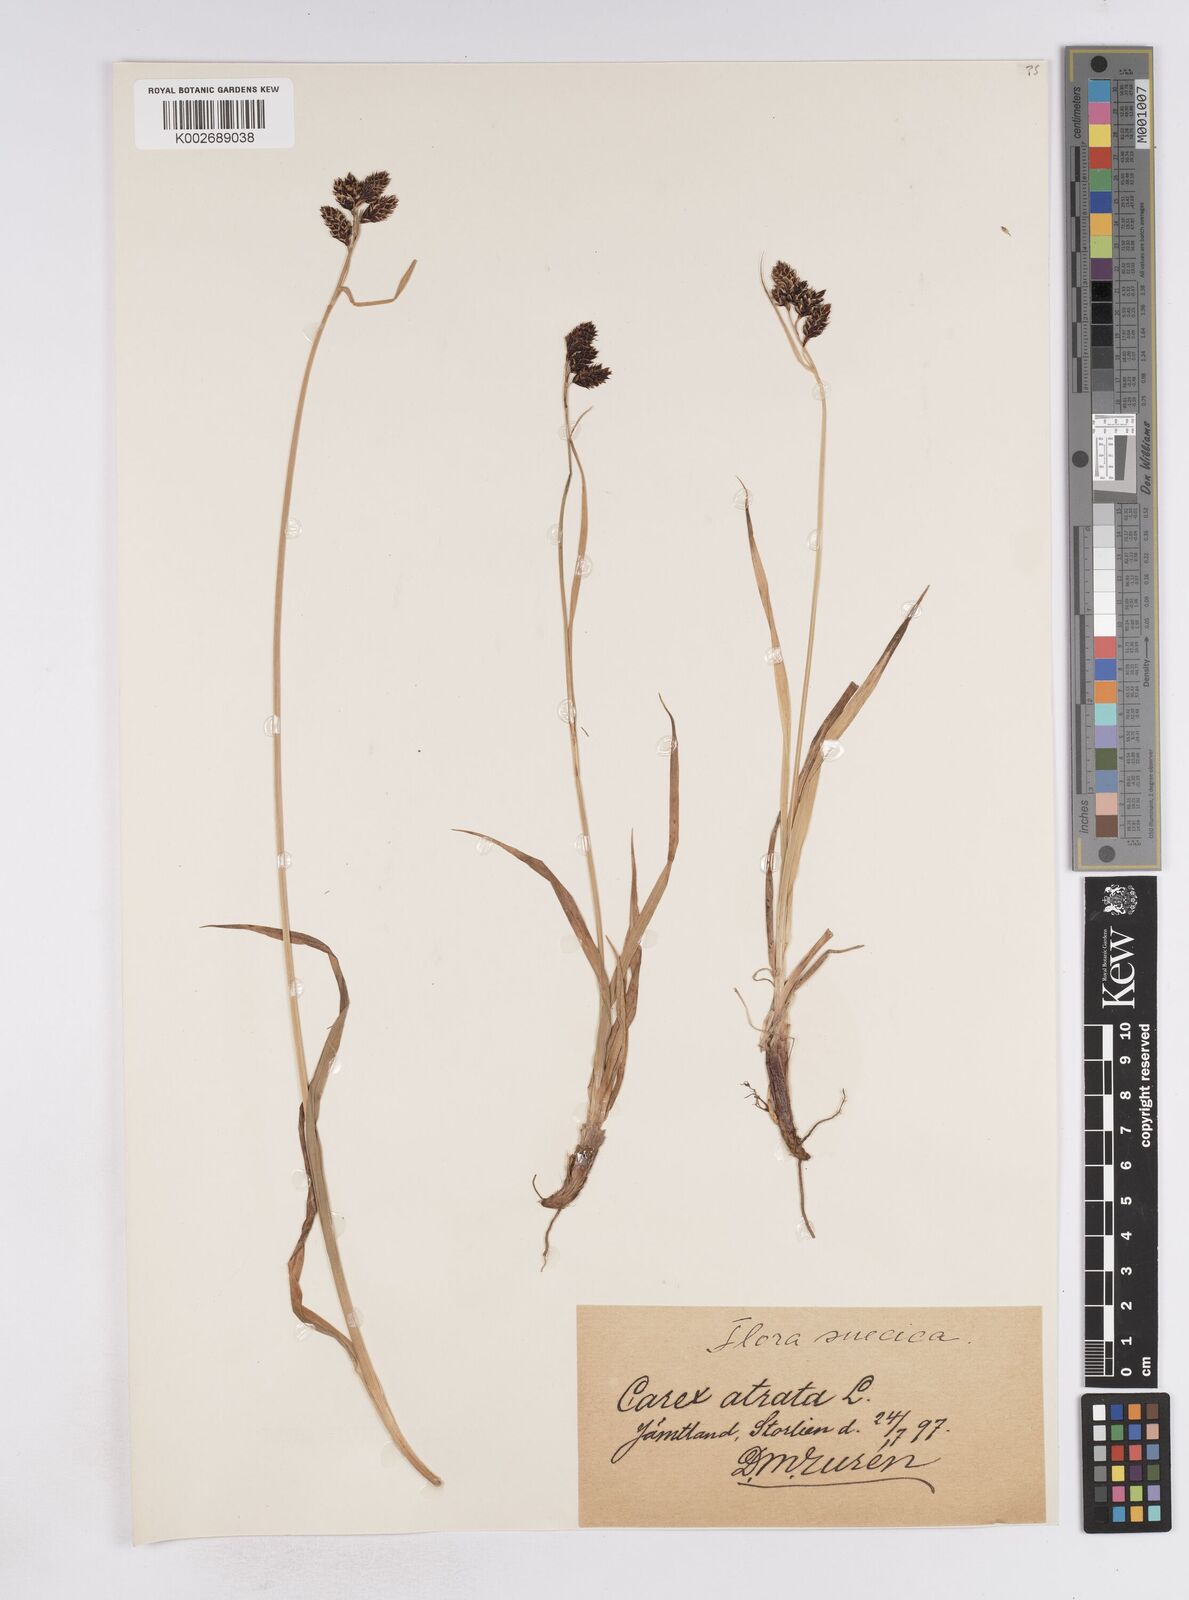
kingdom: Plantae
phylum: Tracheophyta
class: Liliopsida
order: Poales
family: Cyperaceae
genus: Carex
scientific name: Carex atrata
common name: Black alpine sedge
